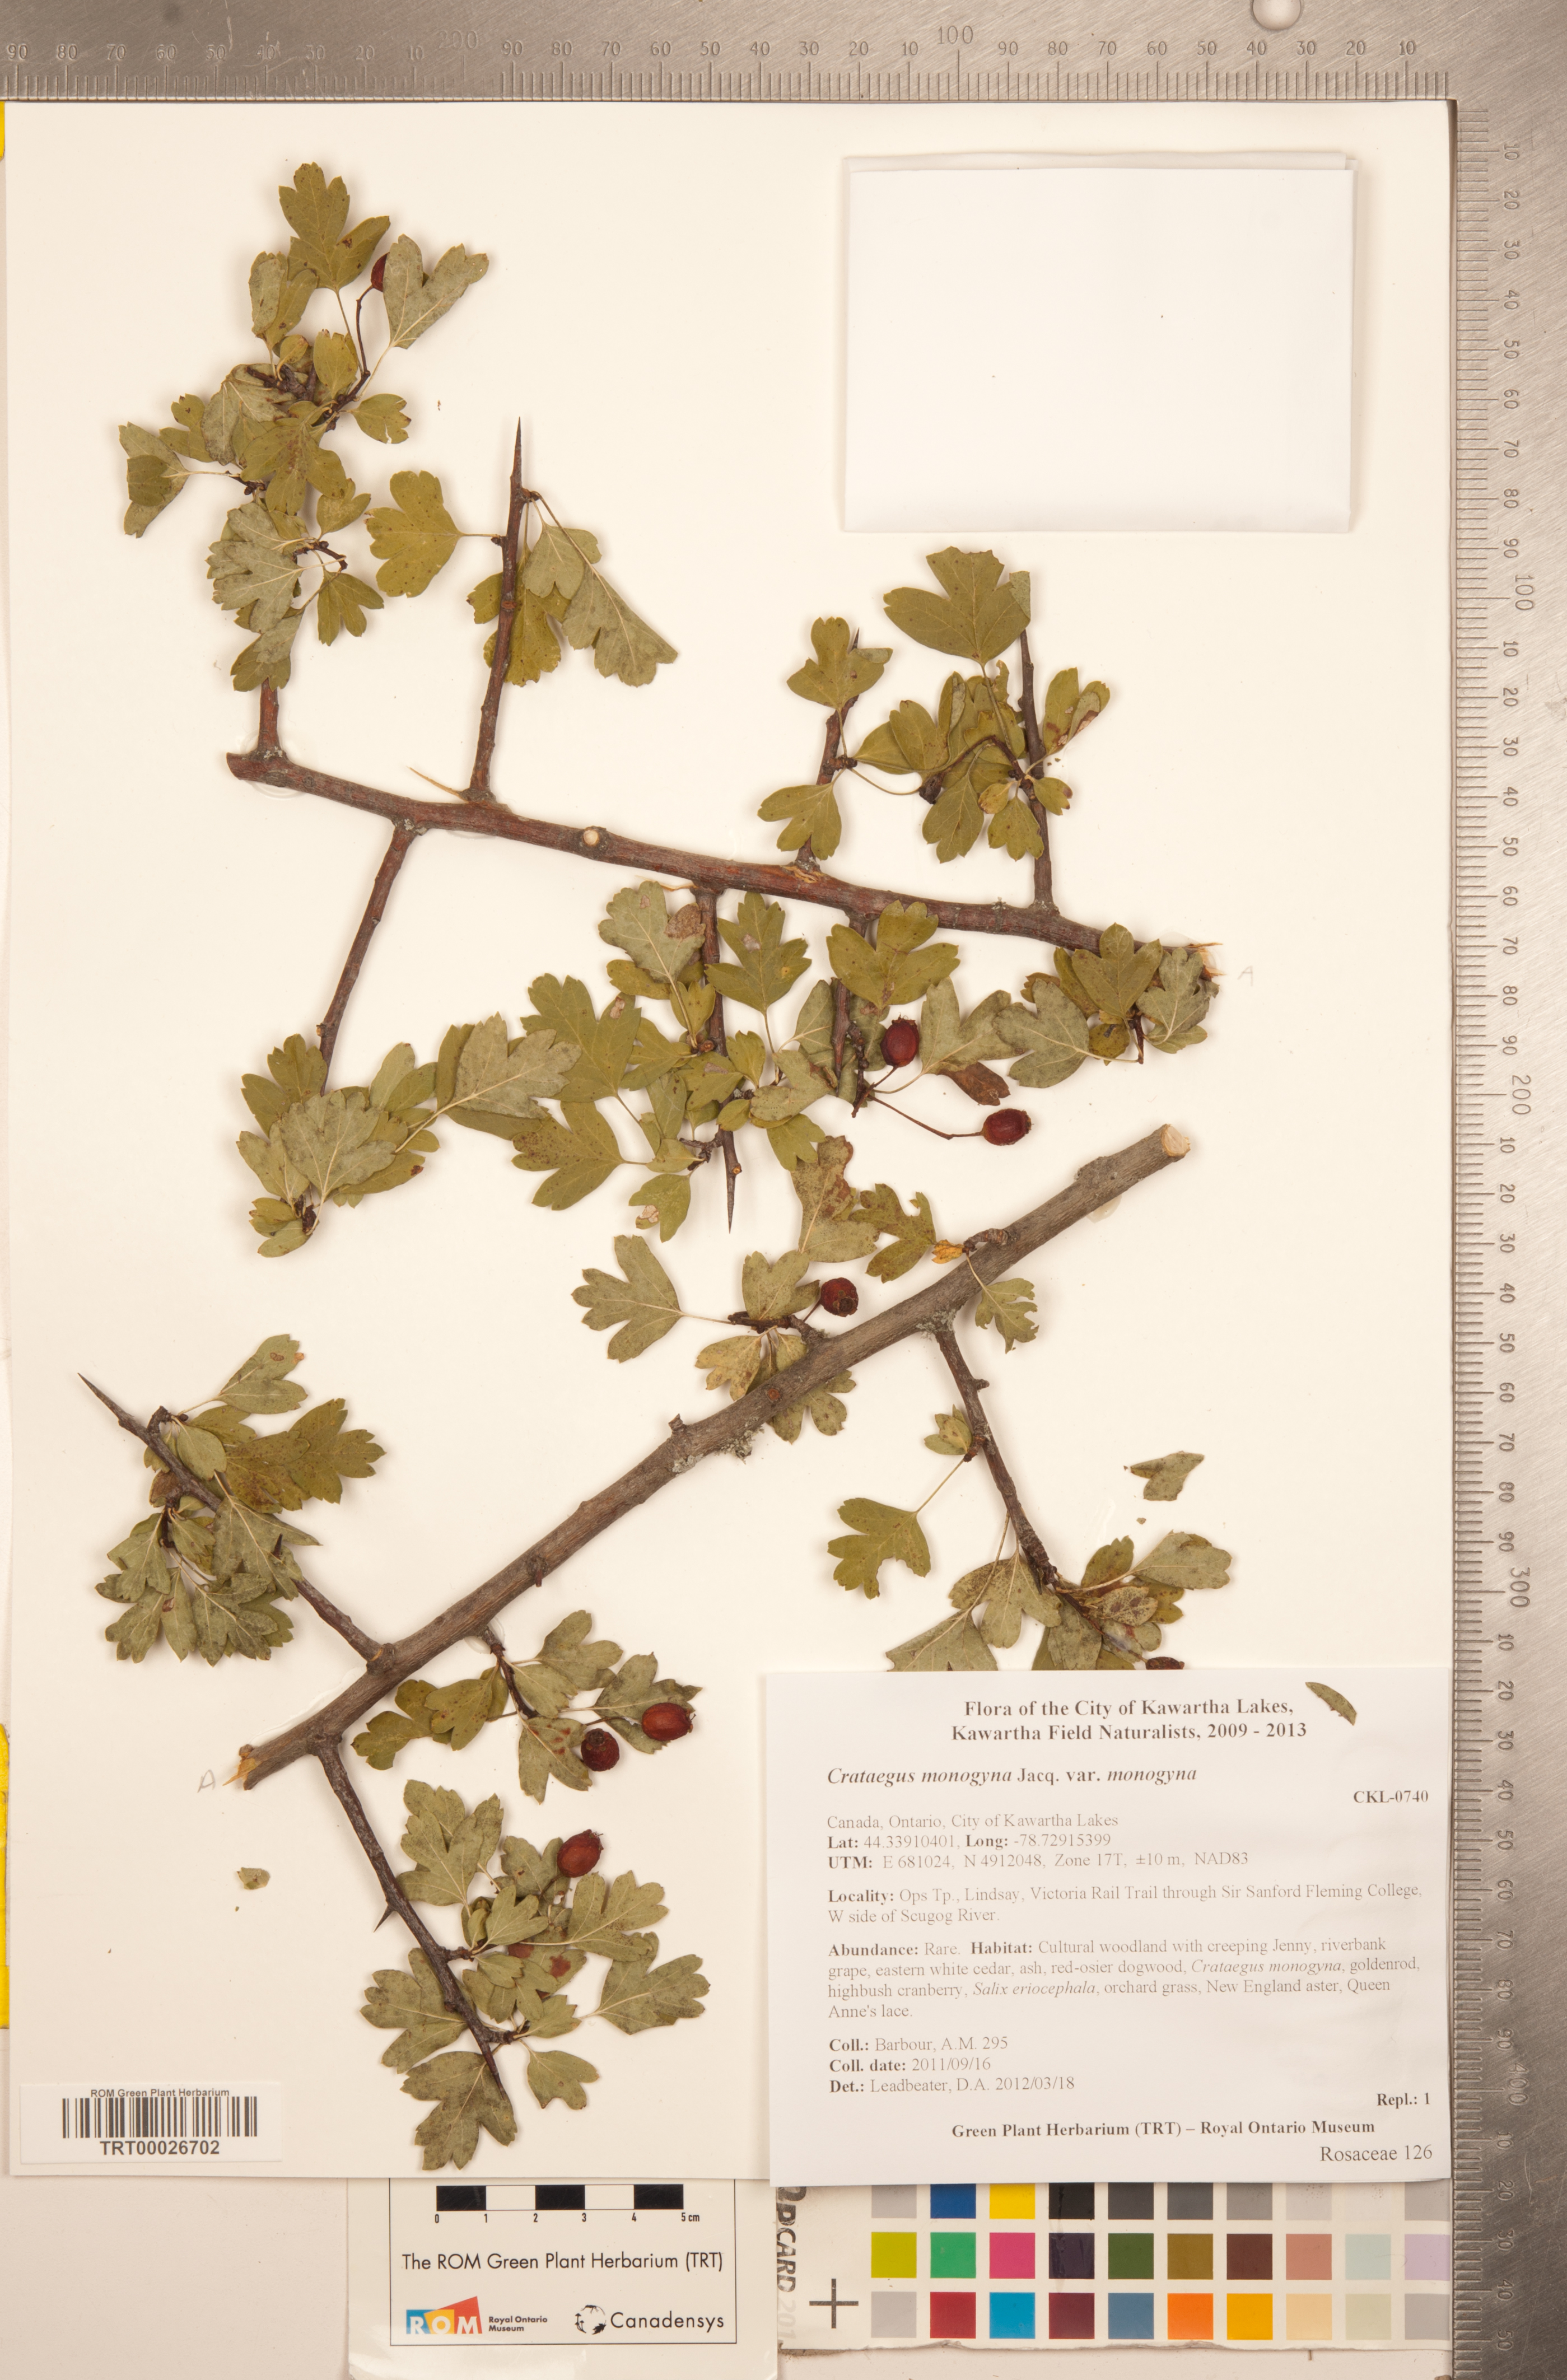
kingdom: Plantae
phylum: Tracheophyta
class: Magnoliopsida
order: Rosales
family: Rosaceae
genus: Crataegus
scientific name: Crataegus monogyna
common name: Hawthorn
